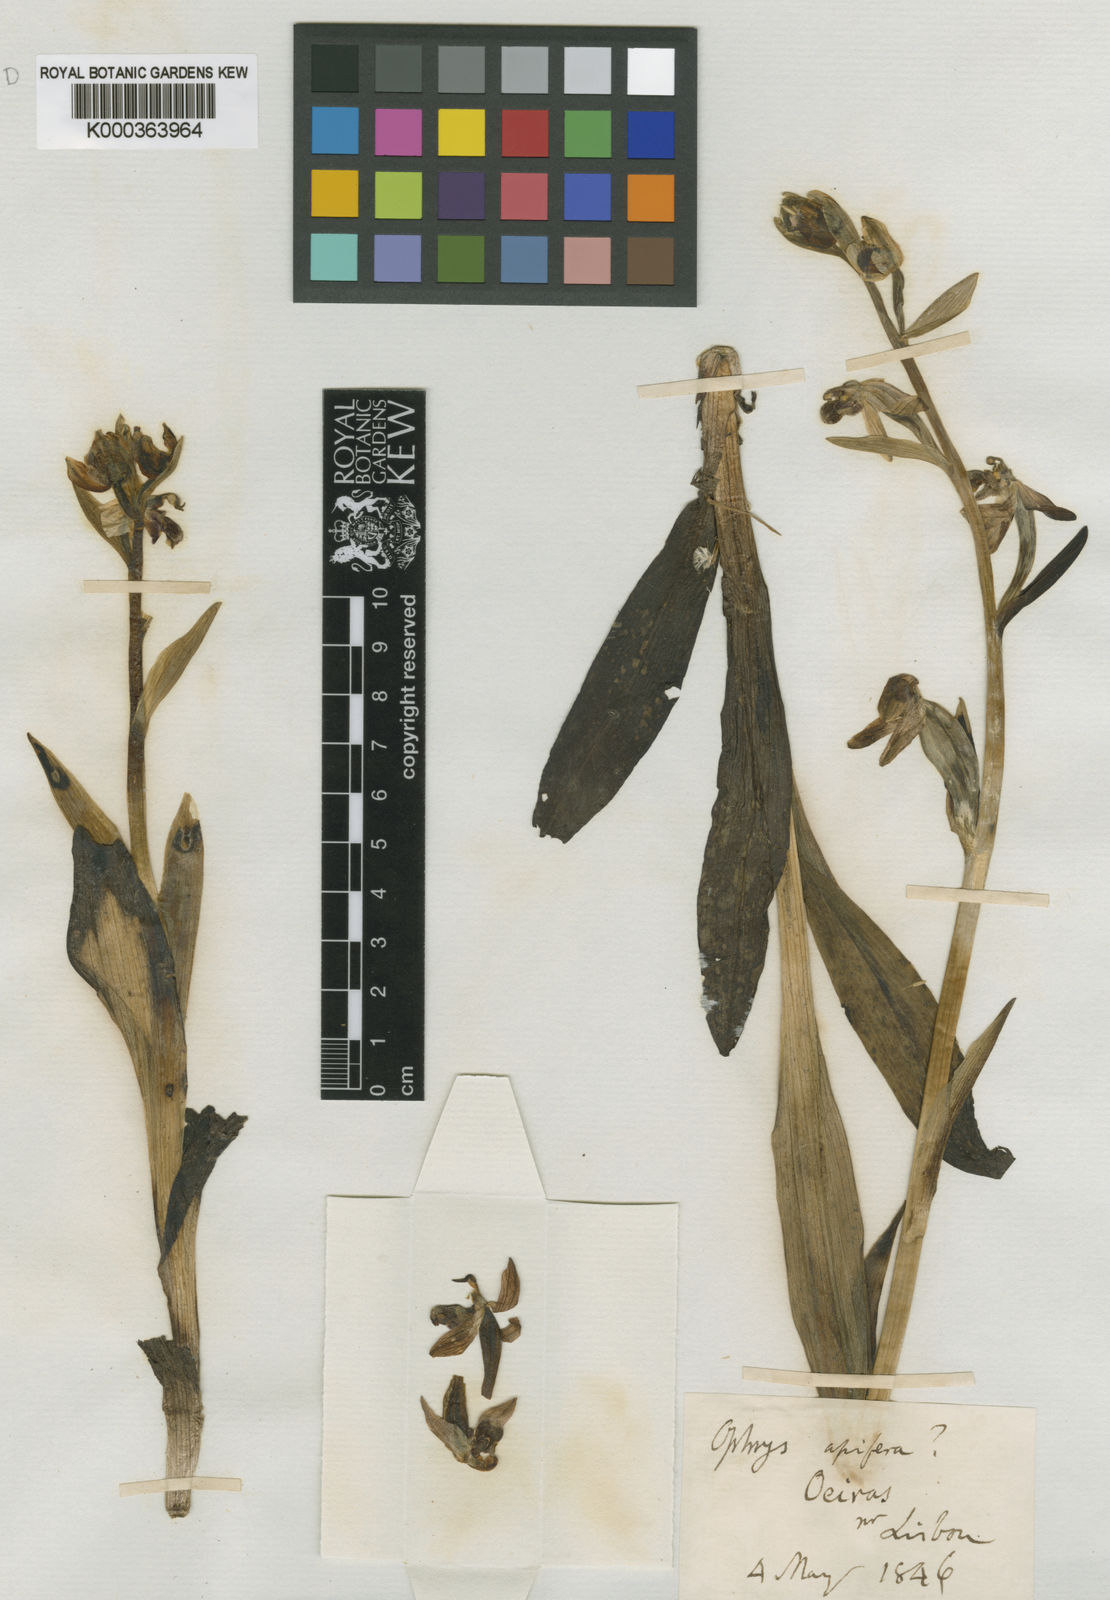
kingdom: Plantae
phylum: Tracheophyta
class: Liliopsida
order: Asparagales
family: Orchidaceae
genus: Ophrys
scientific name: Ophrys apifera
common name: Bee orchid
